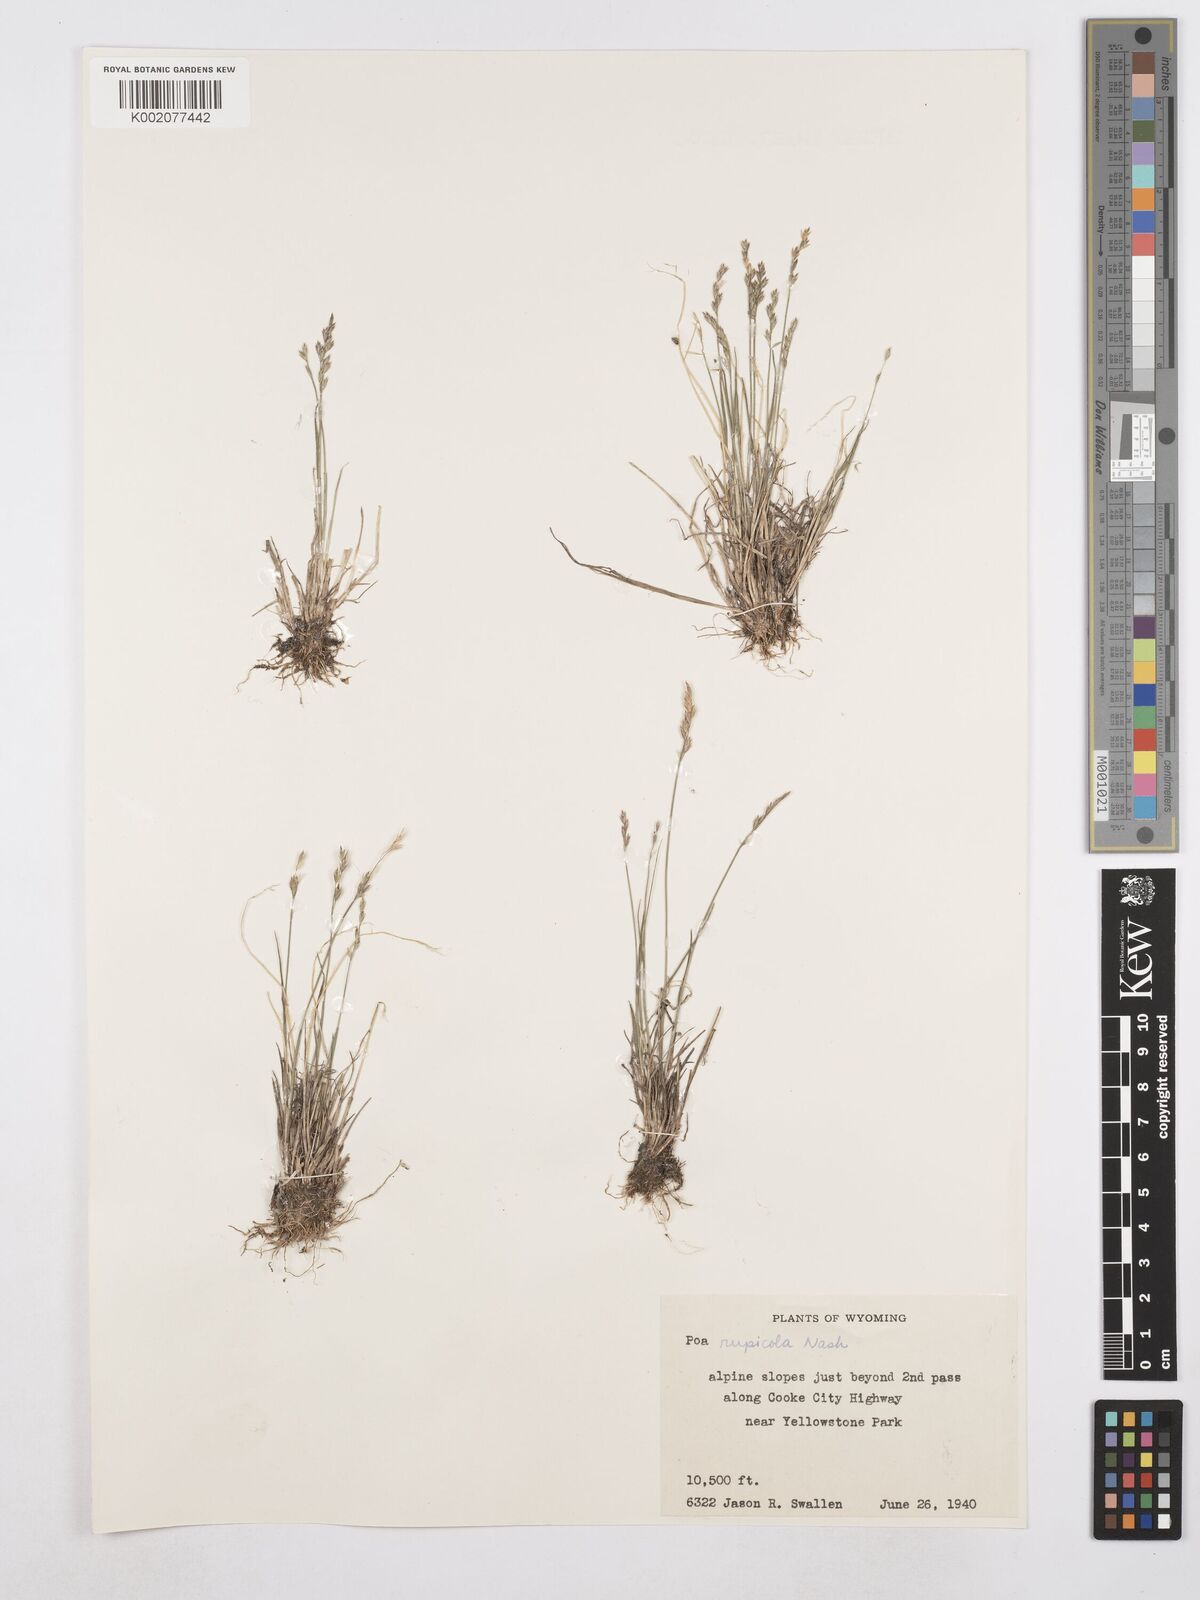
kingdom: Plantae
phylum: Tracheophyta
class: Liliopsida
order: Poales
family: Poaceae
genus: Poa
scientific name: Poa glauca
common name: Glaucous bluegrass
